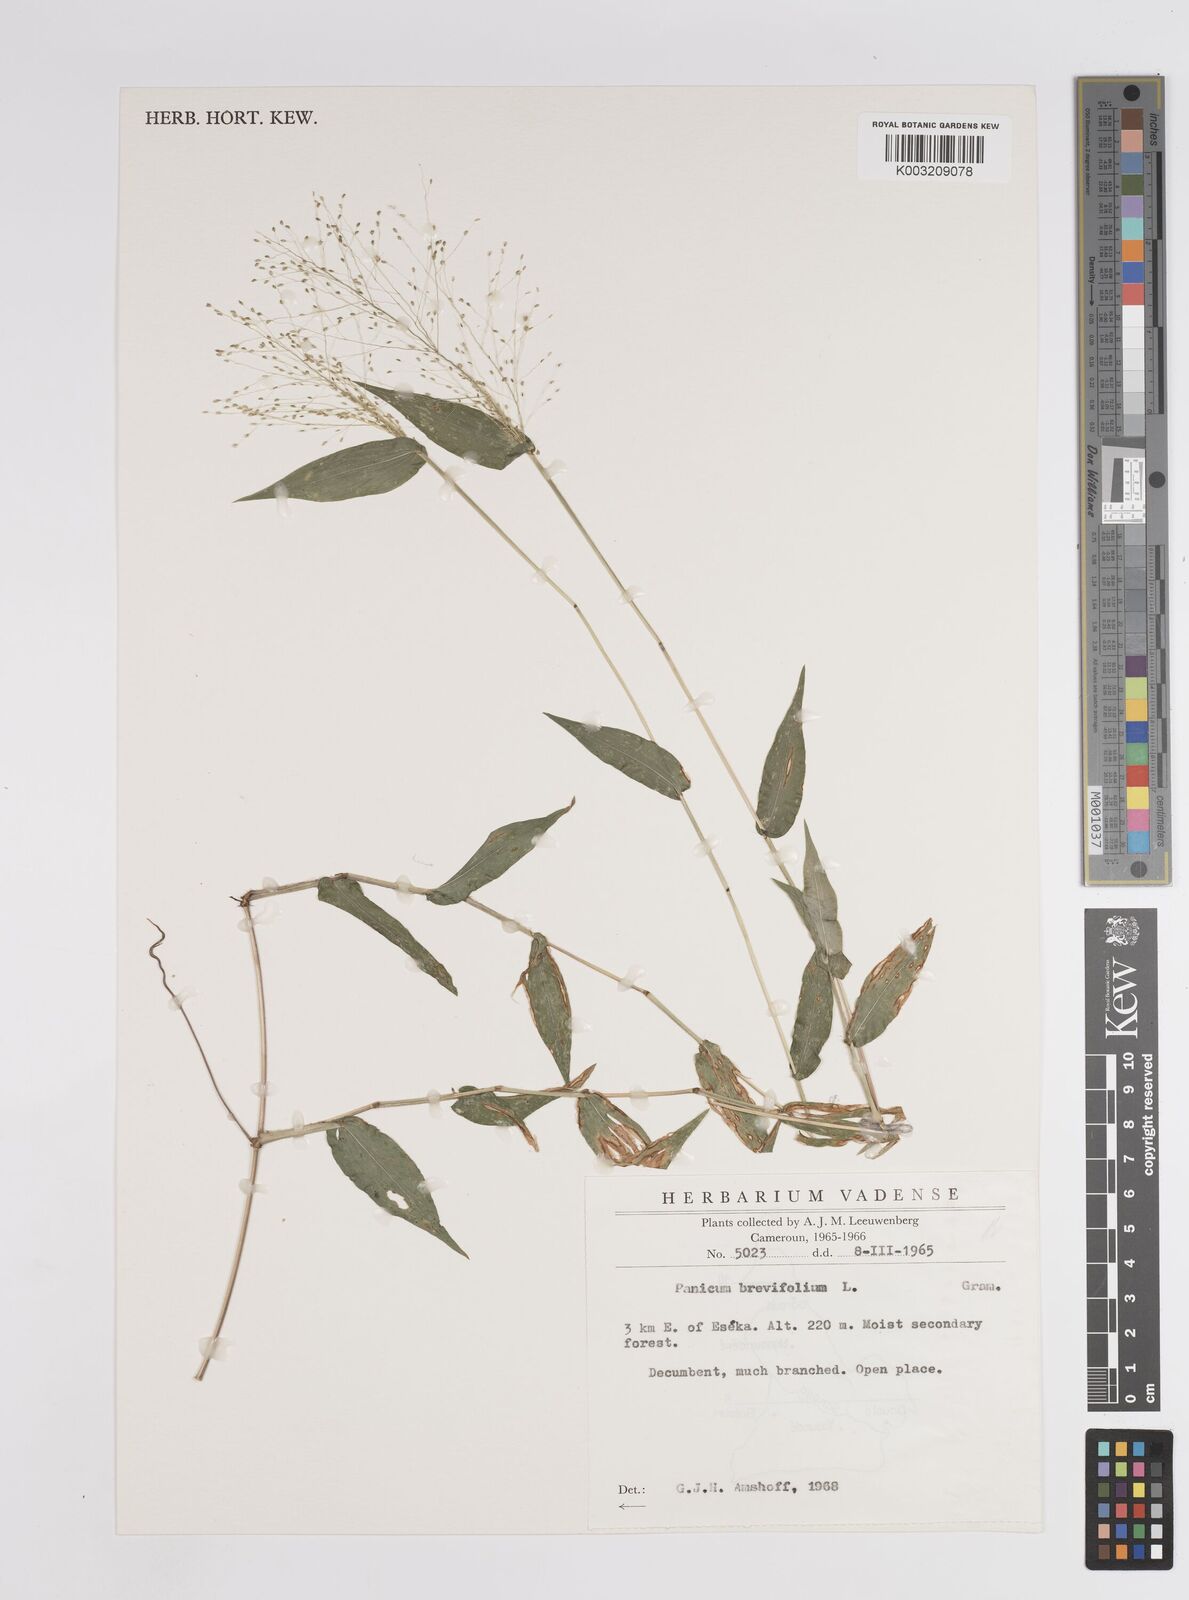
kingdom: Plantae
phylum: Tracheophyta
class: Liliopsida
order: Poales
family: Poaceae
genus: Panicum
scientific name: Panicum brevifolium
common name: Shortleaf panic grass
